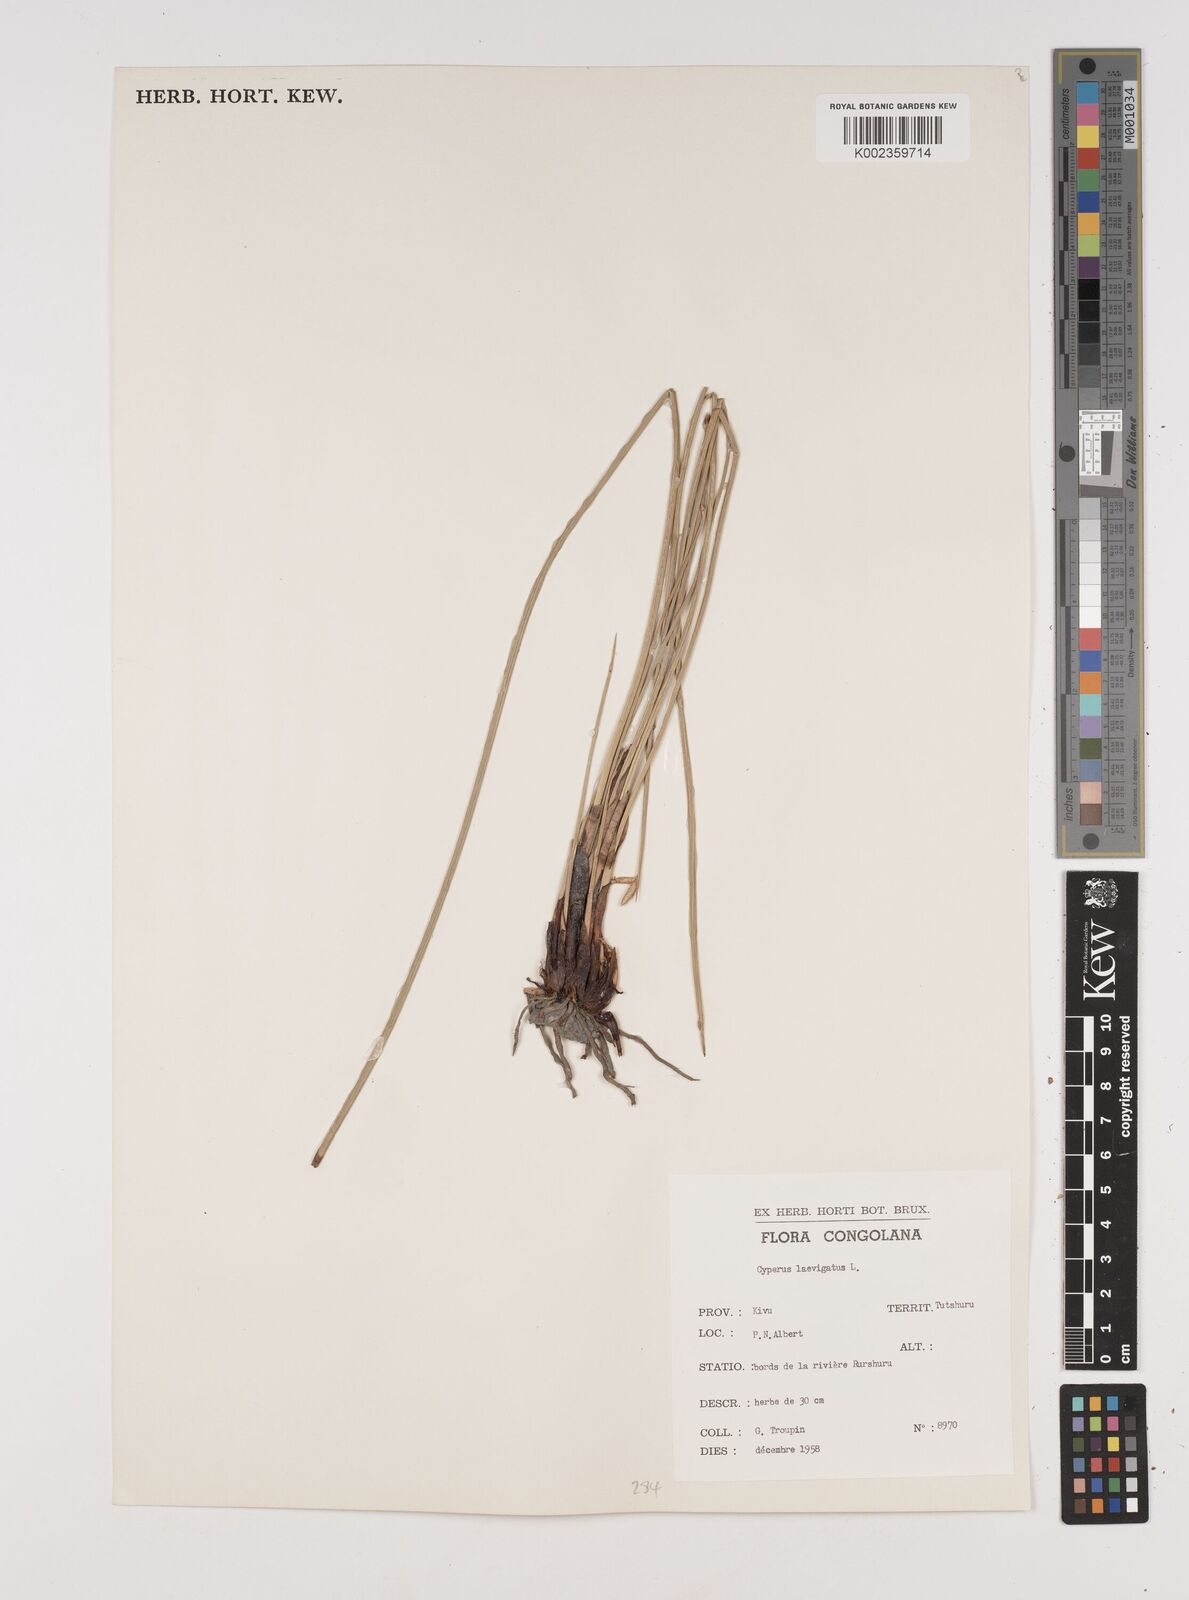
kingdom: Plantae
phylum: Tracheophyta
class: Liliopsida
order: Poales
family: Cyperaceae
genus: Cyperus
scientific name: Cyperus laevigatus
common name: Smooth flat sedge
